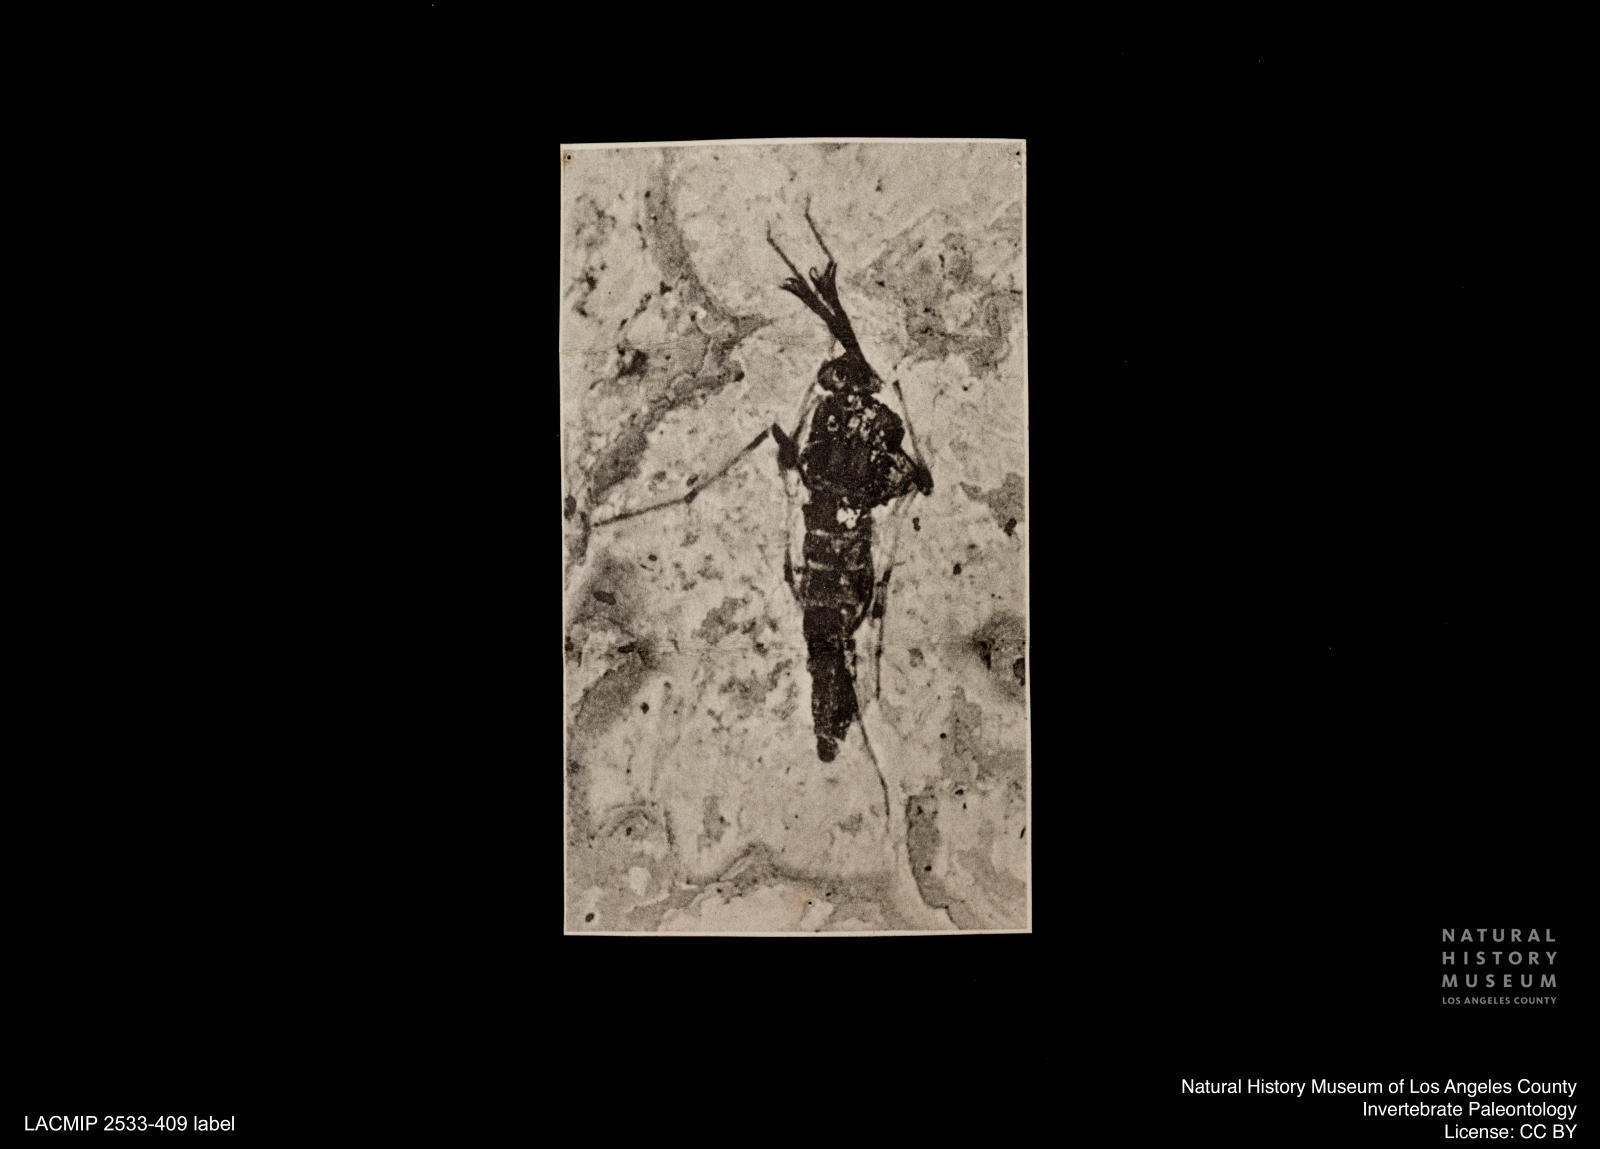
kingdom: Animalia
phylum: Arthropoda
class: Insecta
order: Diptera
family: Chironomidae
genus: Tanypus
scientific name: Tanypus dorminans
